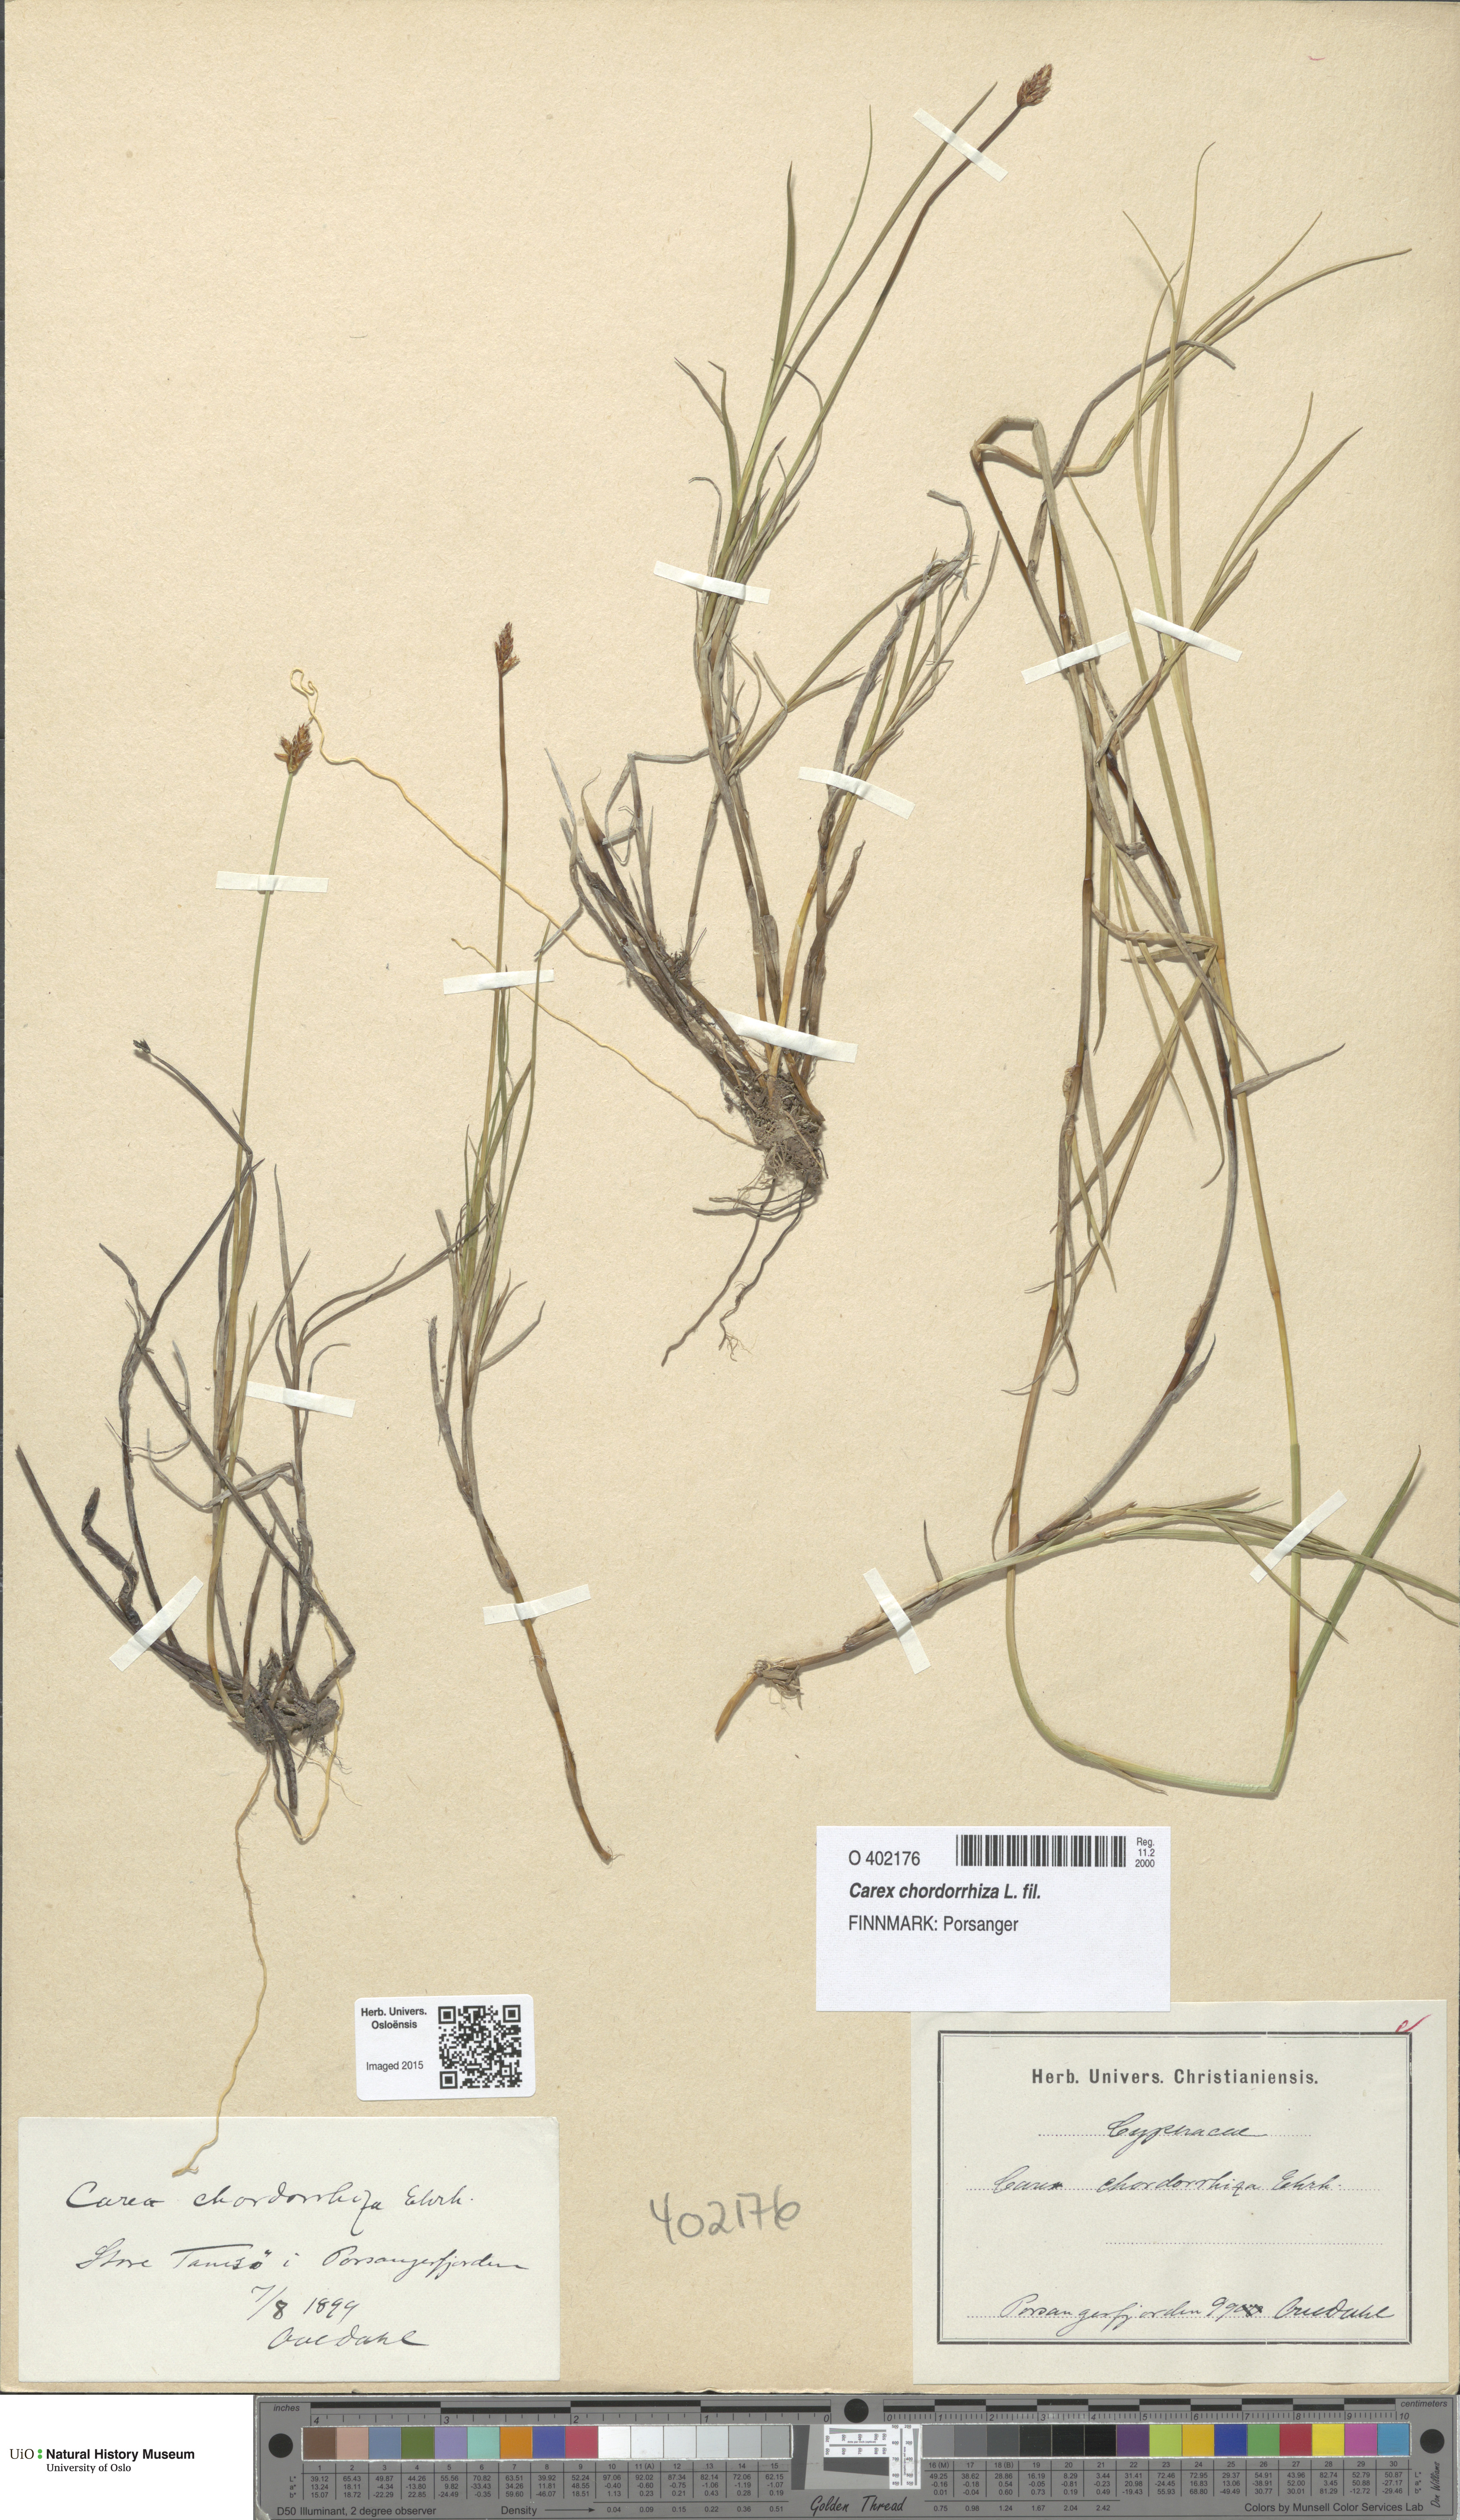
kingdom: Plantae
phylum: Tracheophyta
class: Liliopsida
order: Poales
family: Cyperaceae
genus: Carex
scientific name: Carex chordorrhiza
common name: String sedge
